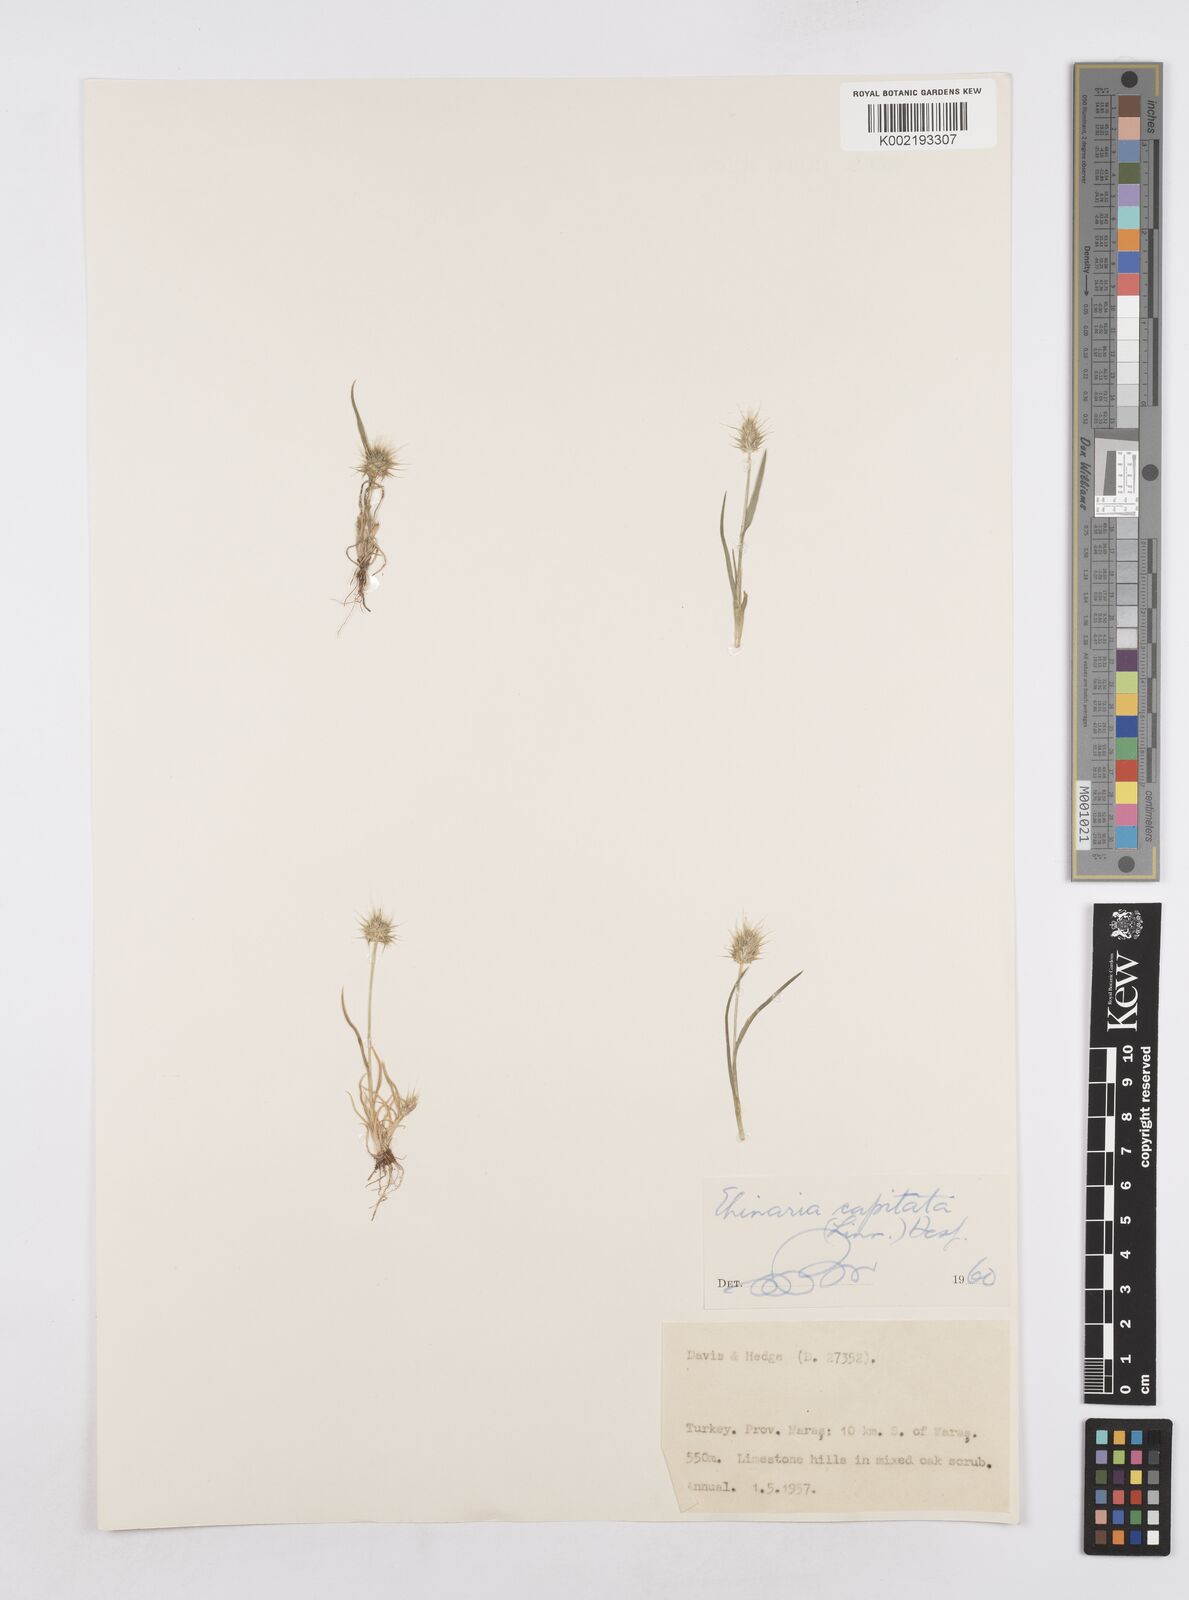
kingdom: Plantae
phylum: Tracheophyta
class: Liliopsida
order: Poales
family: Poaceae
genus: Echinaria
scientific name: Echinaria capitata
